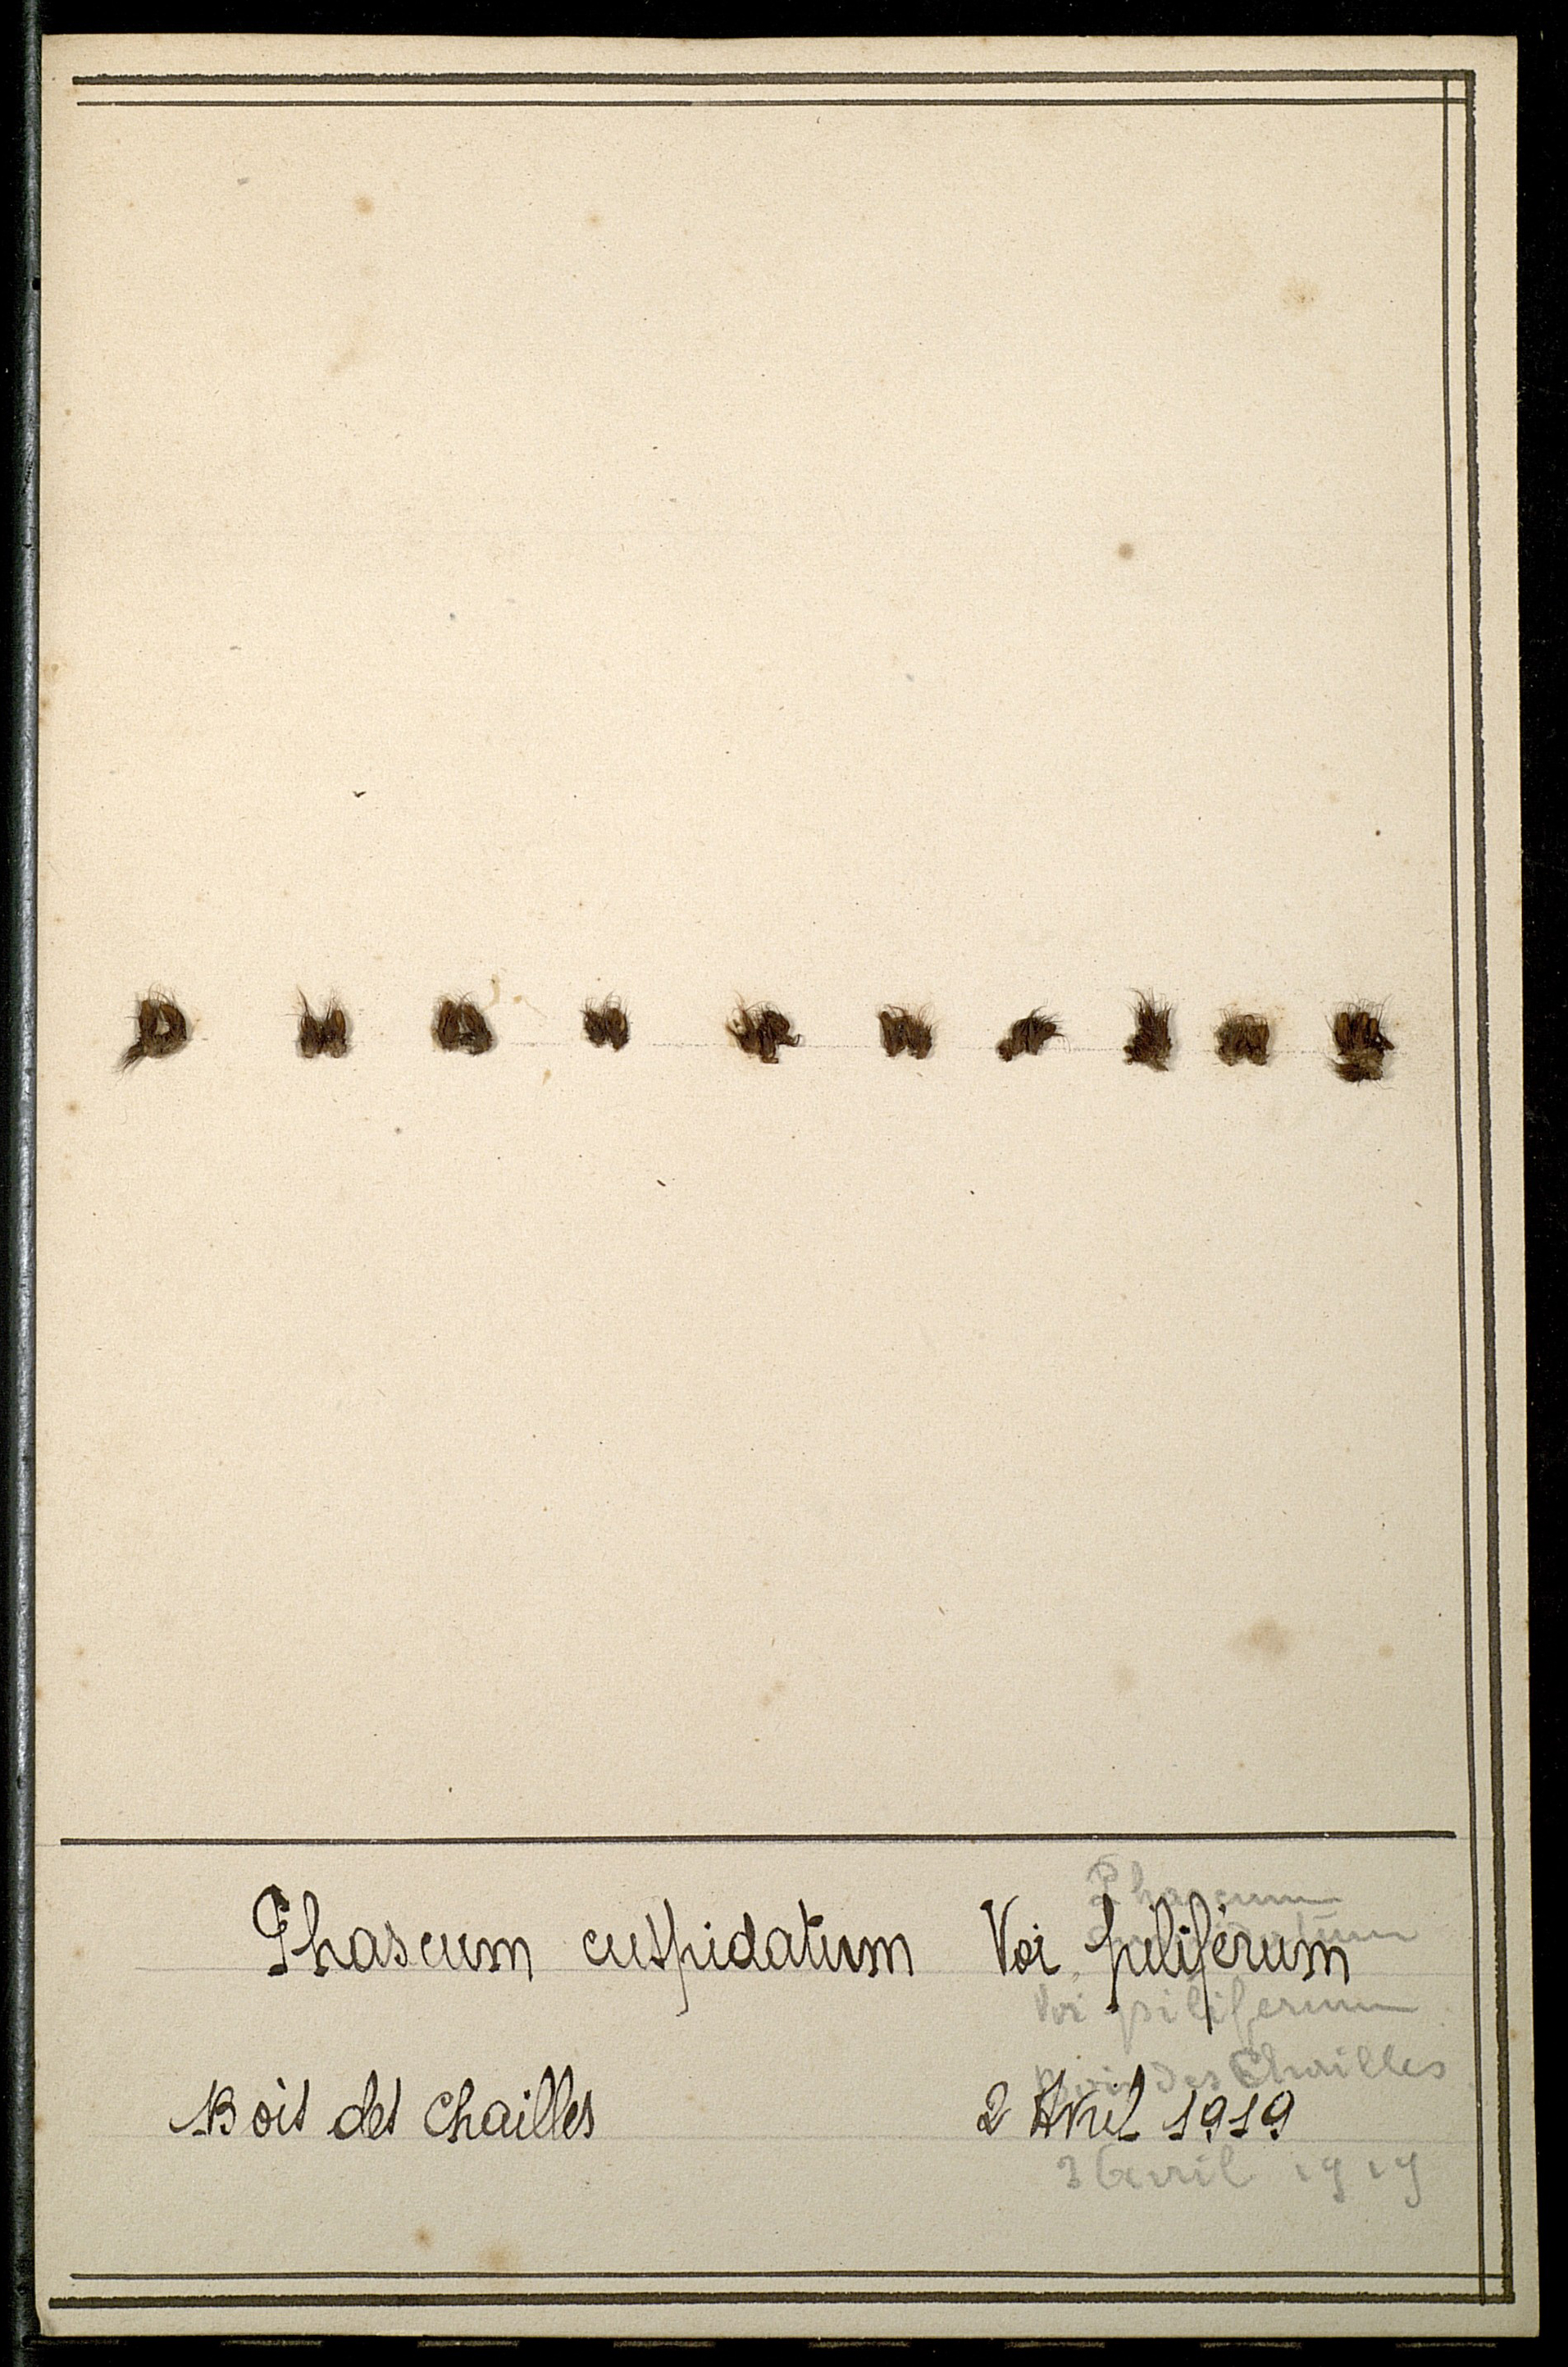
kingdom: Plantae
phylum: Bryophyta
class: Bryopsida
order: Pottiales
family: Pottiaceae
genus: Tortula
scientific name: Tortula acaulon
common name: Cuspidate earth moss
